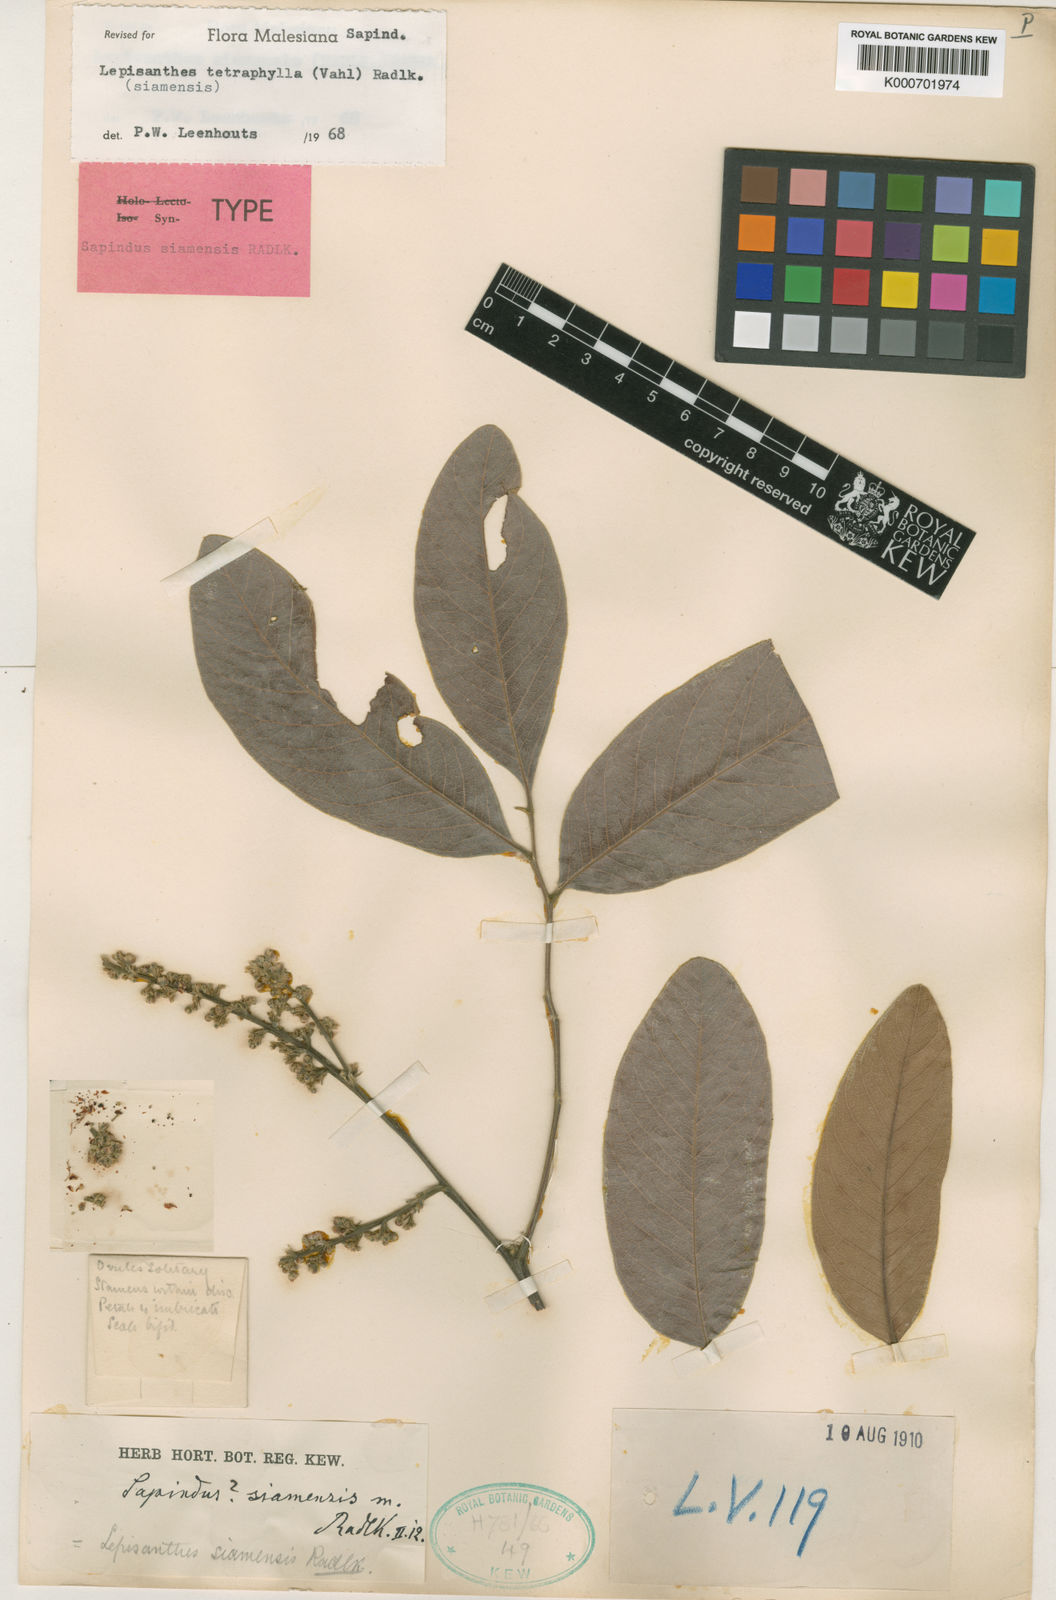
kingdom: Plantae
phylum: Tracheophyta
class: Magnoliopsida
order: Sapindales
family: Sapindaceae
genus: Lepisanthes
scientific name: Lepisanthes tetraphylla
